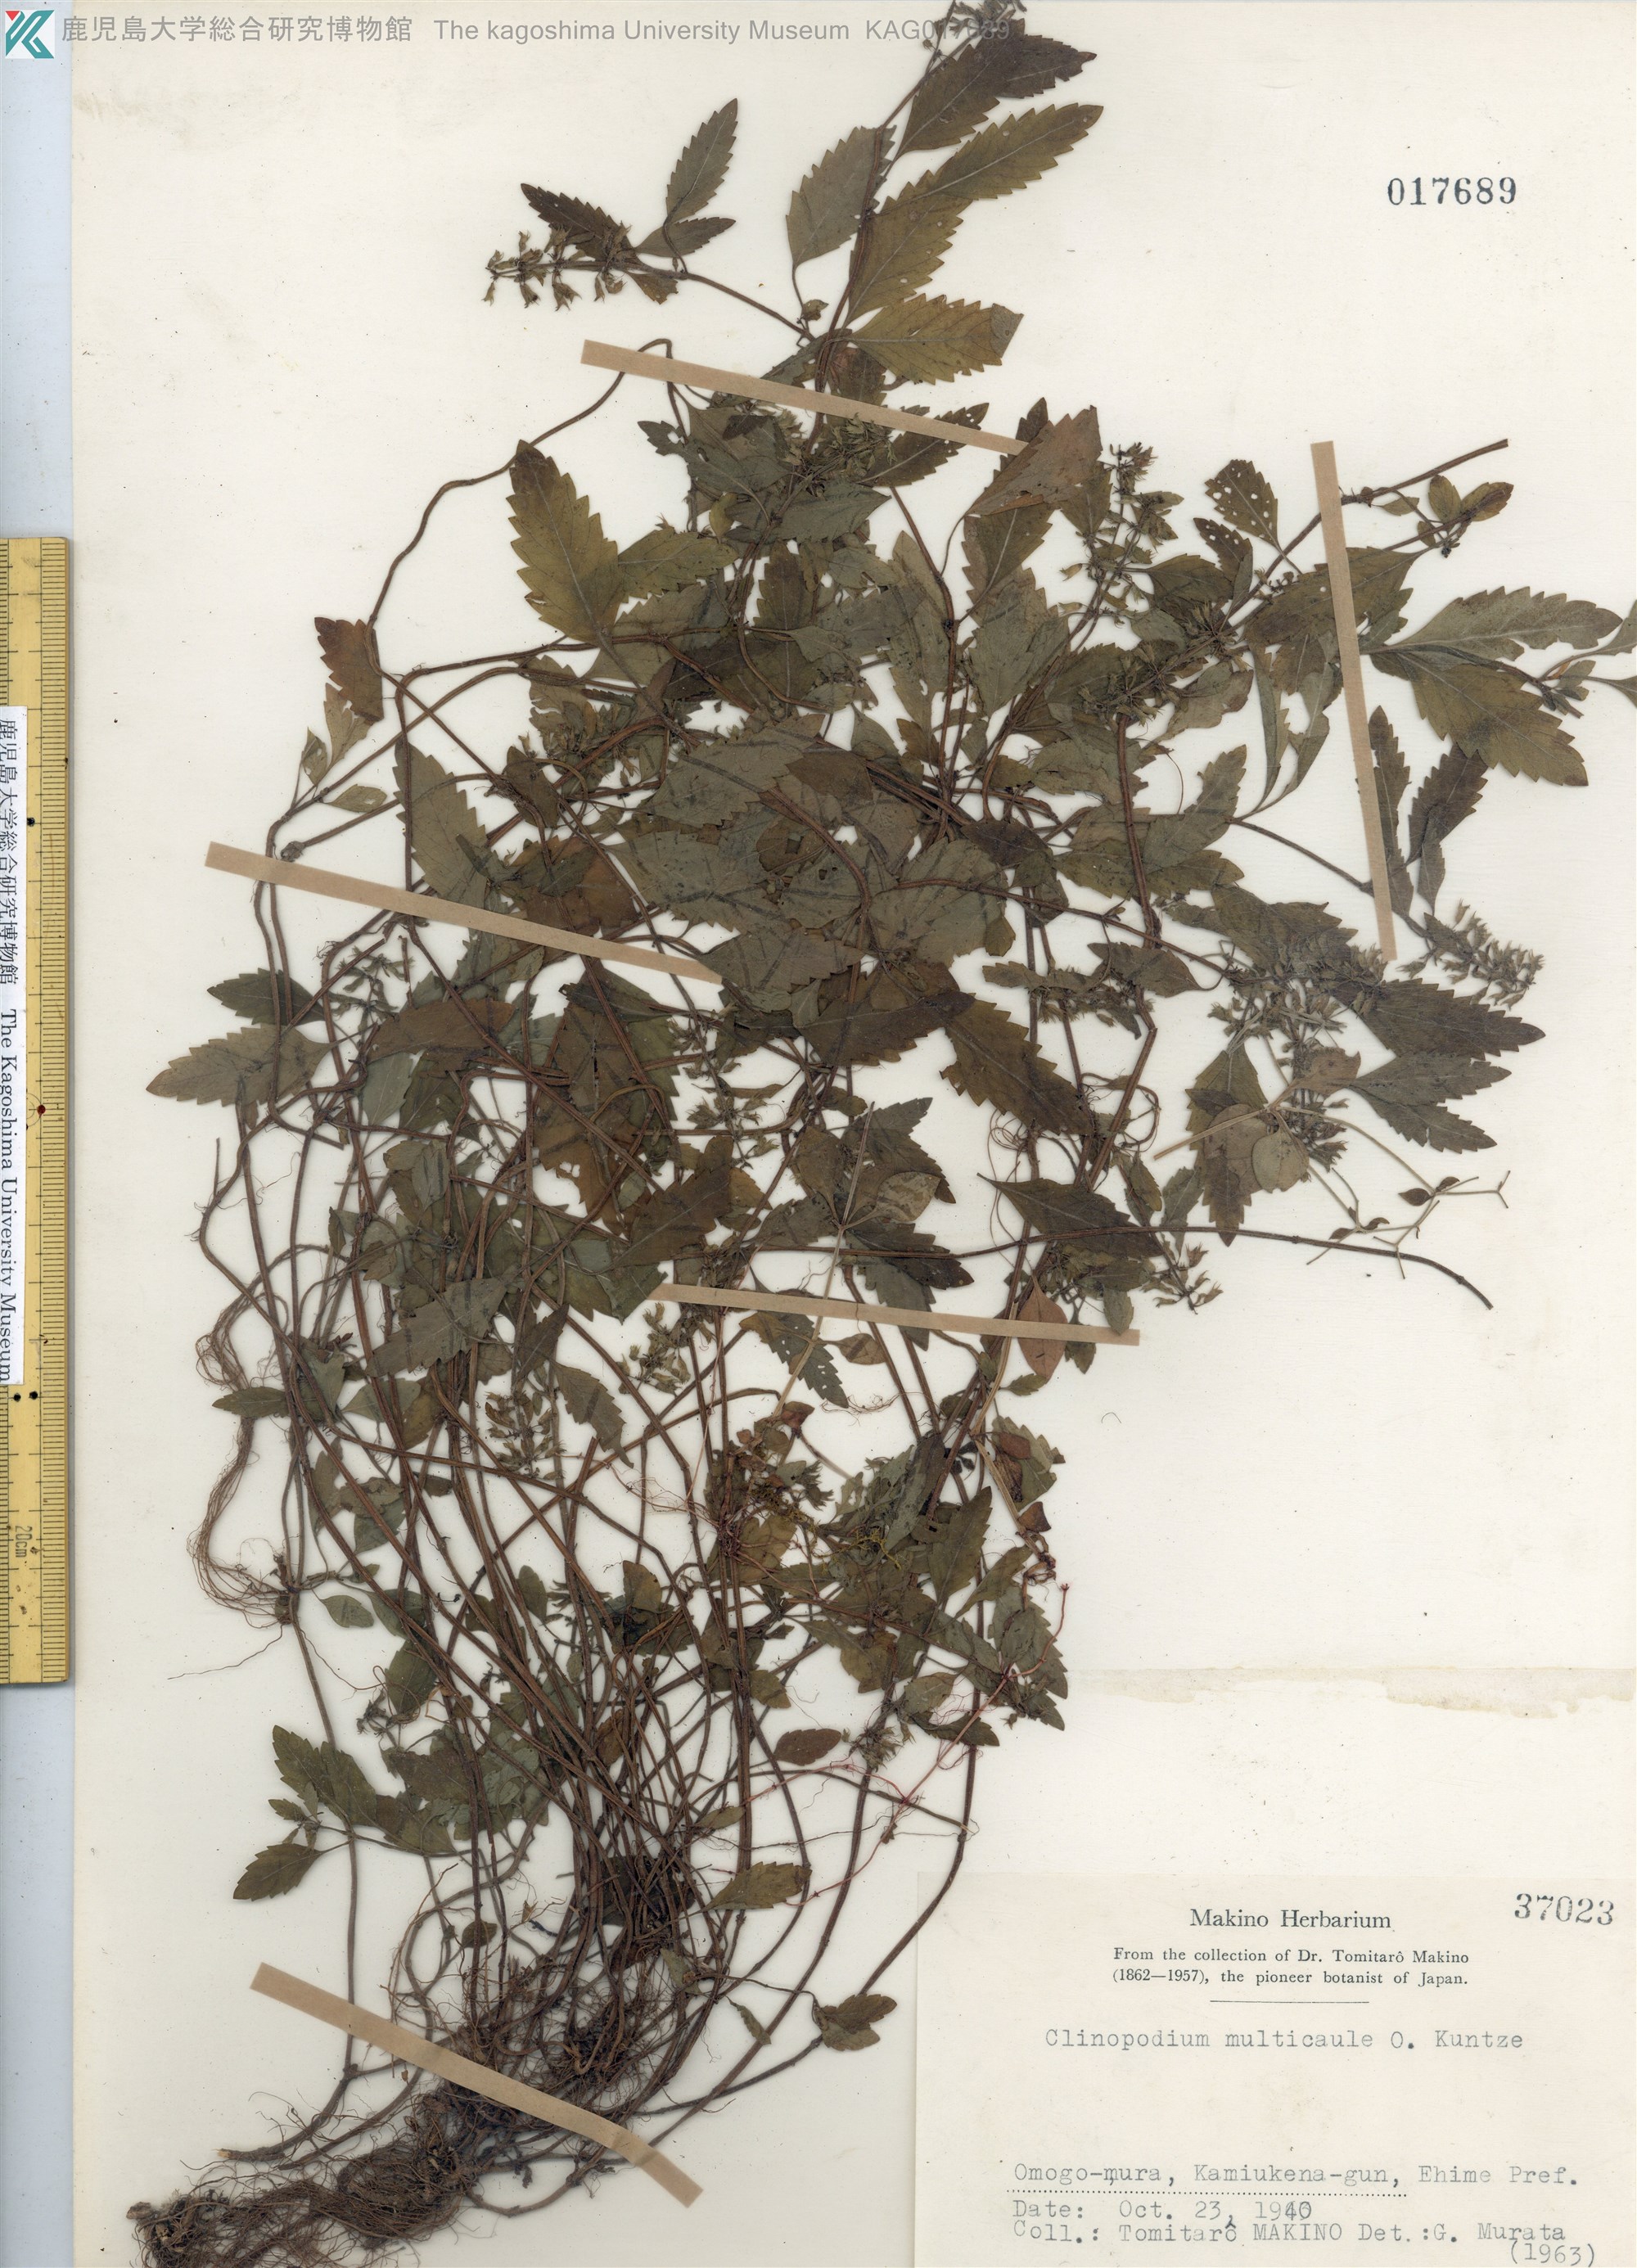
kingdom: Plantae
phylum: Tracheophyta
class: Magnoliopsida
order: Lamiales
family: Lamiaceae
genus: Clinopodium
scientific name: Clinopodium multicaule
